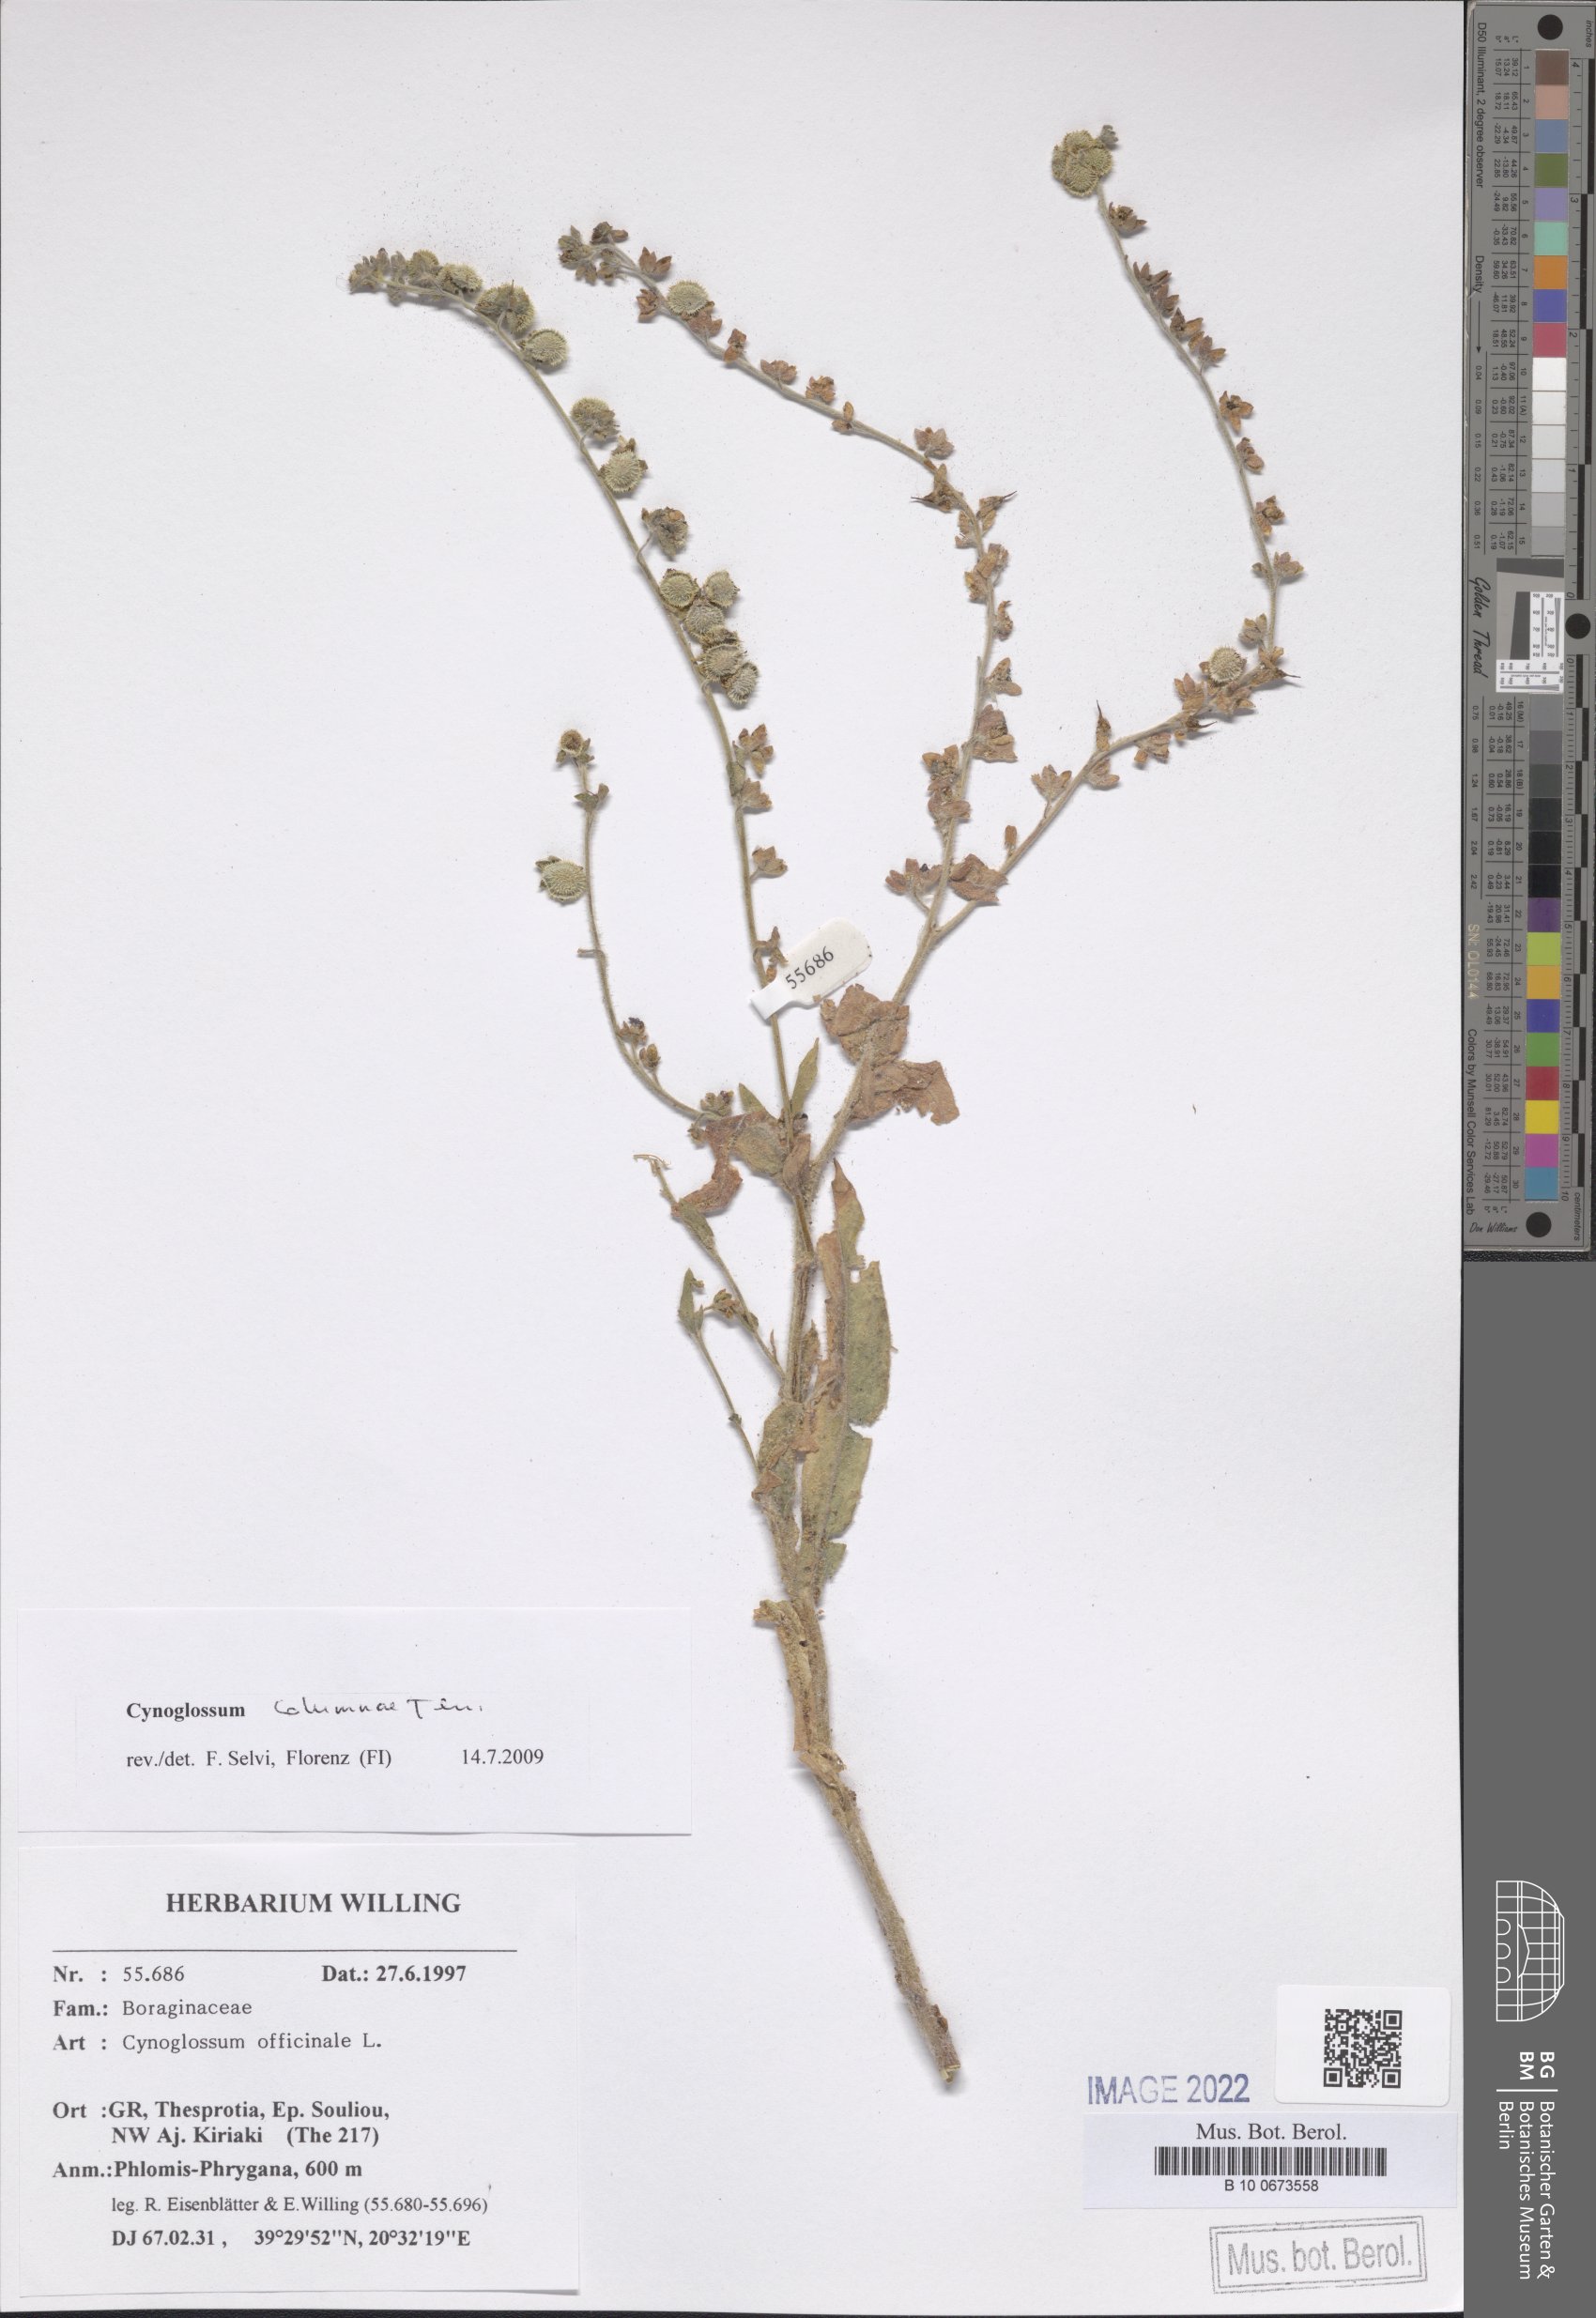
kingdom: Plantae
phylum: Tracheophyta
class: Magnoliopsida
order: Boraginales
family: Boraginaceae
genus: Rindera
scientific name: Rindera columnae
